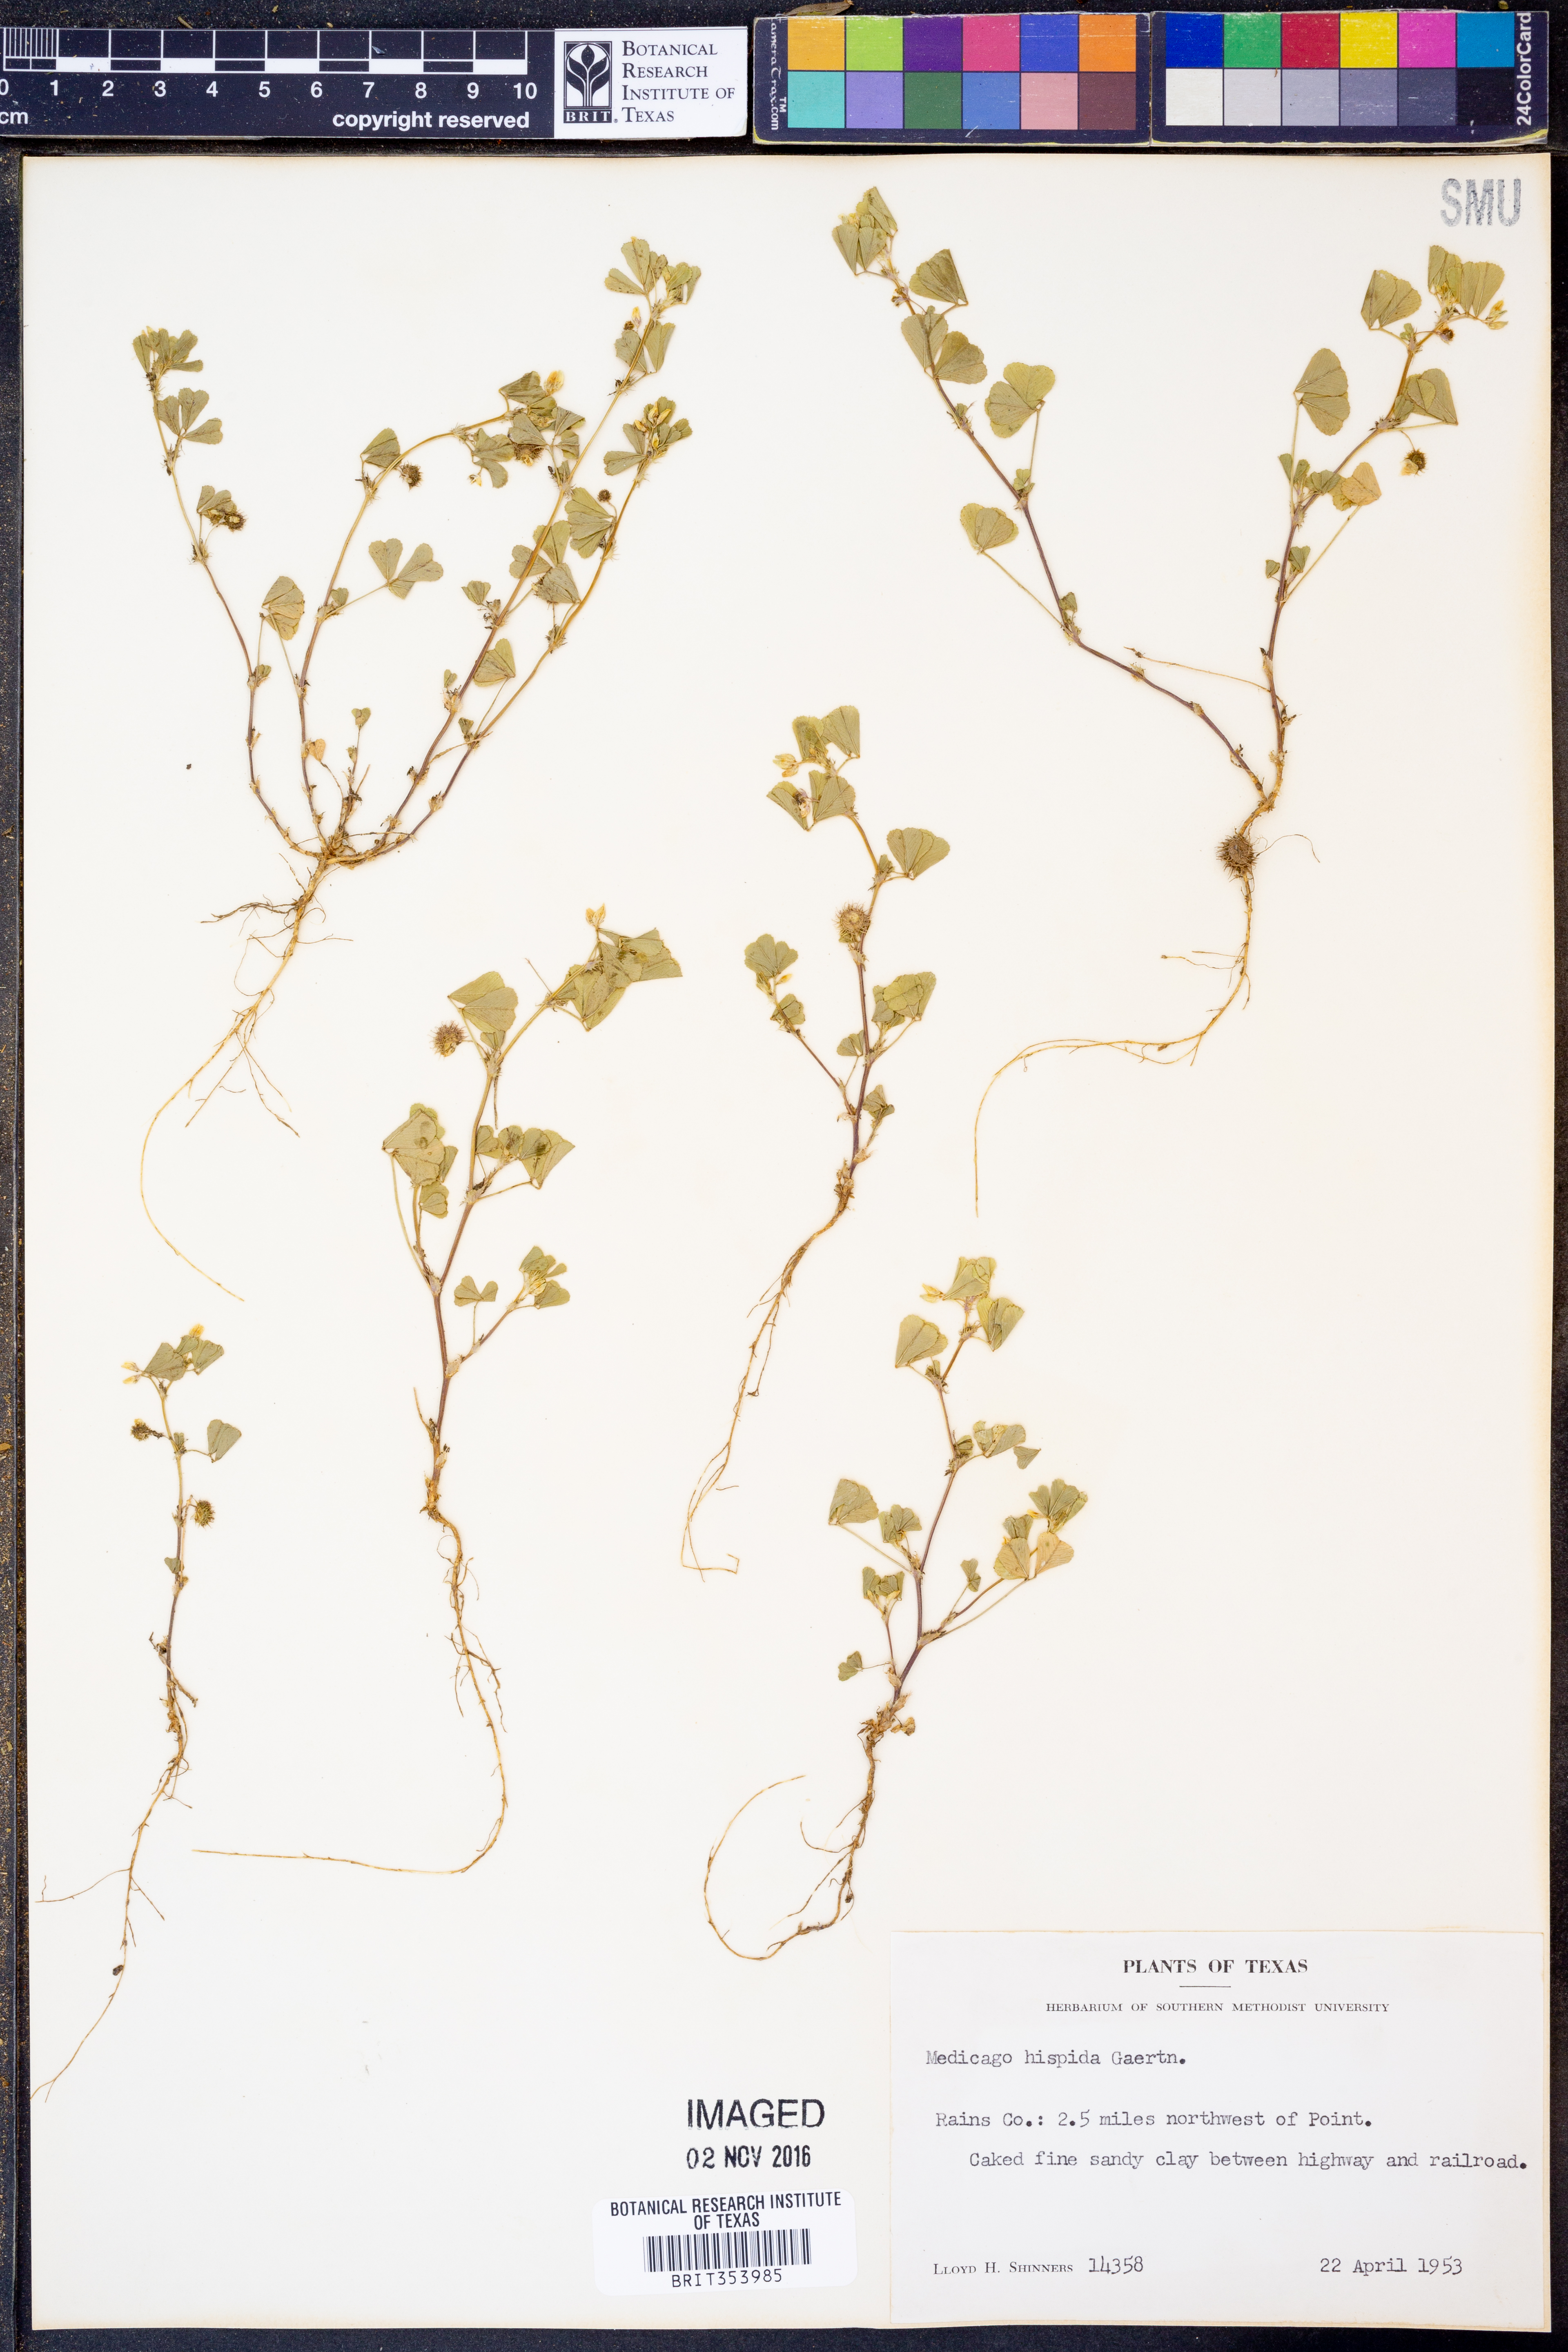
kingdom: Plantae
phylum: Tracheophyta
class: Magnoliopsida
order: Fabales
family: Fabaceae
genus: Medicago
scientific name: Medicago polymorpha
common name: Burclover
